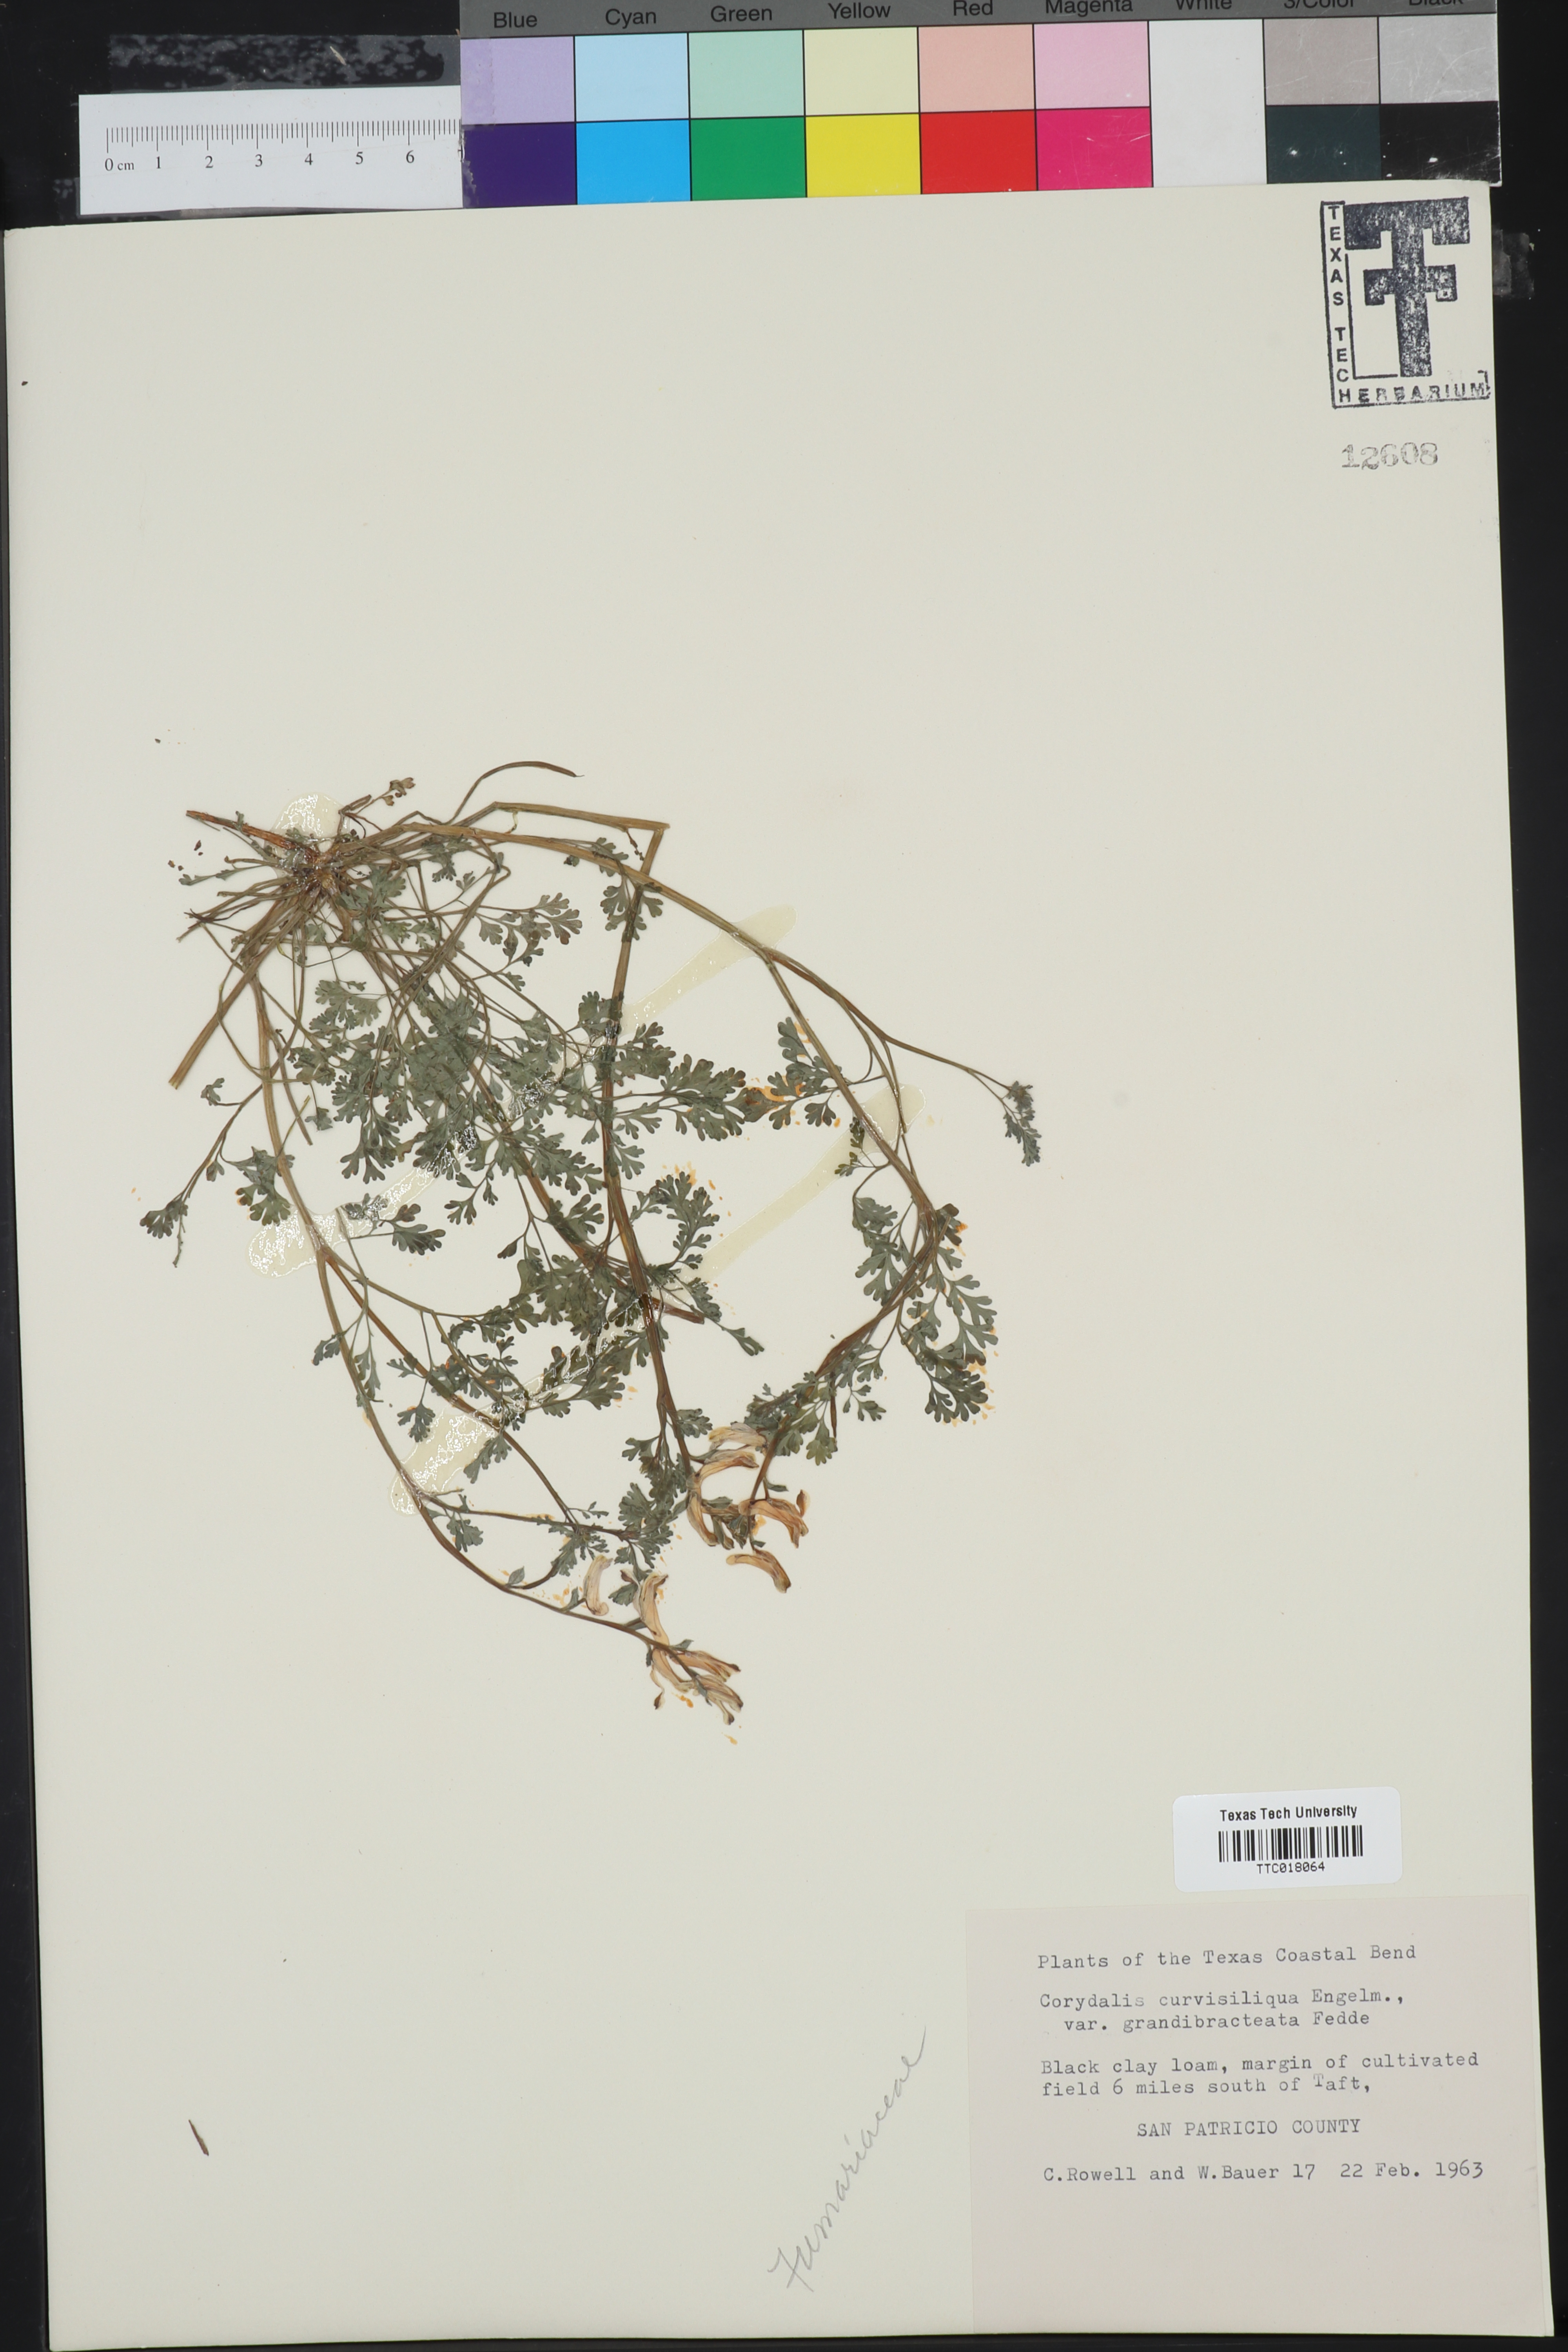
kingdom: Plantae
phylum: Tracheophyta
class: Magnoliopsida
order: Ranunculales
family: Papaveraceae
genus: Corydalis
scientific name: Corydalis curvisiliqua
